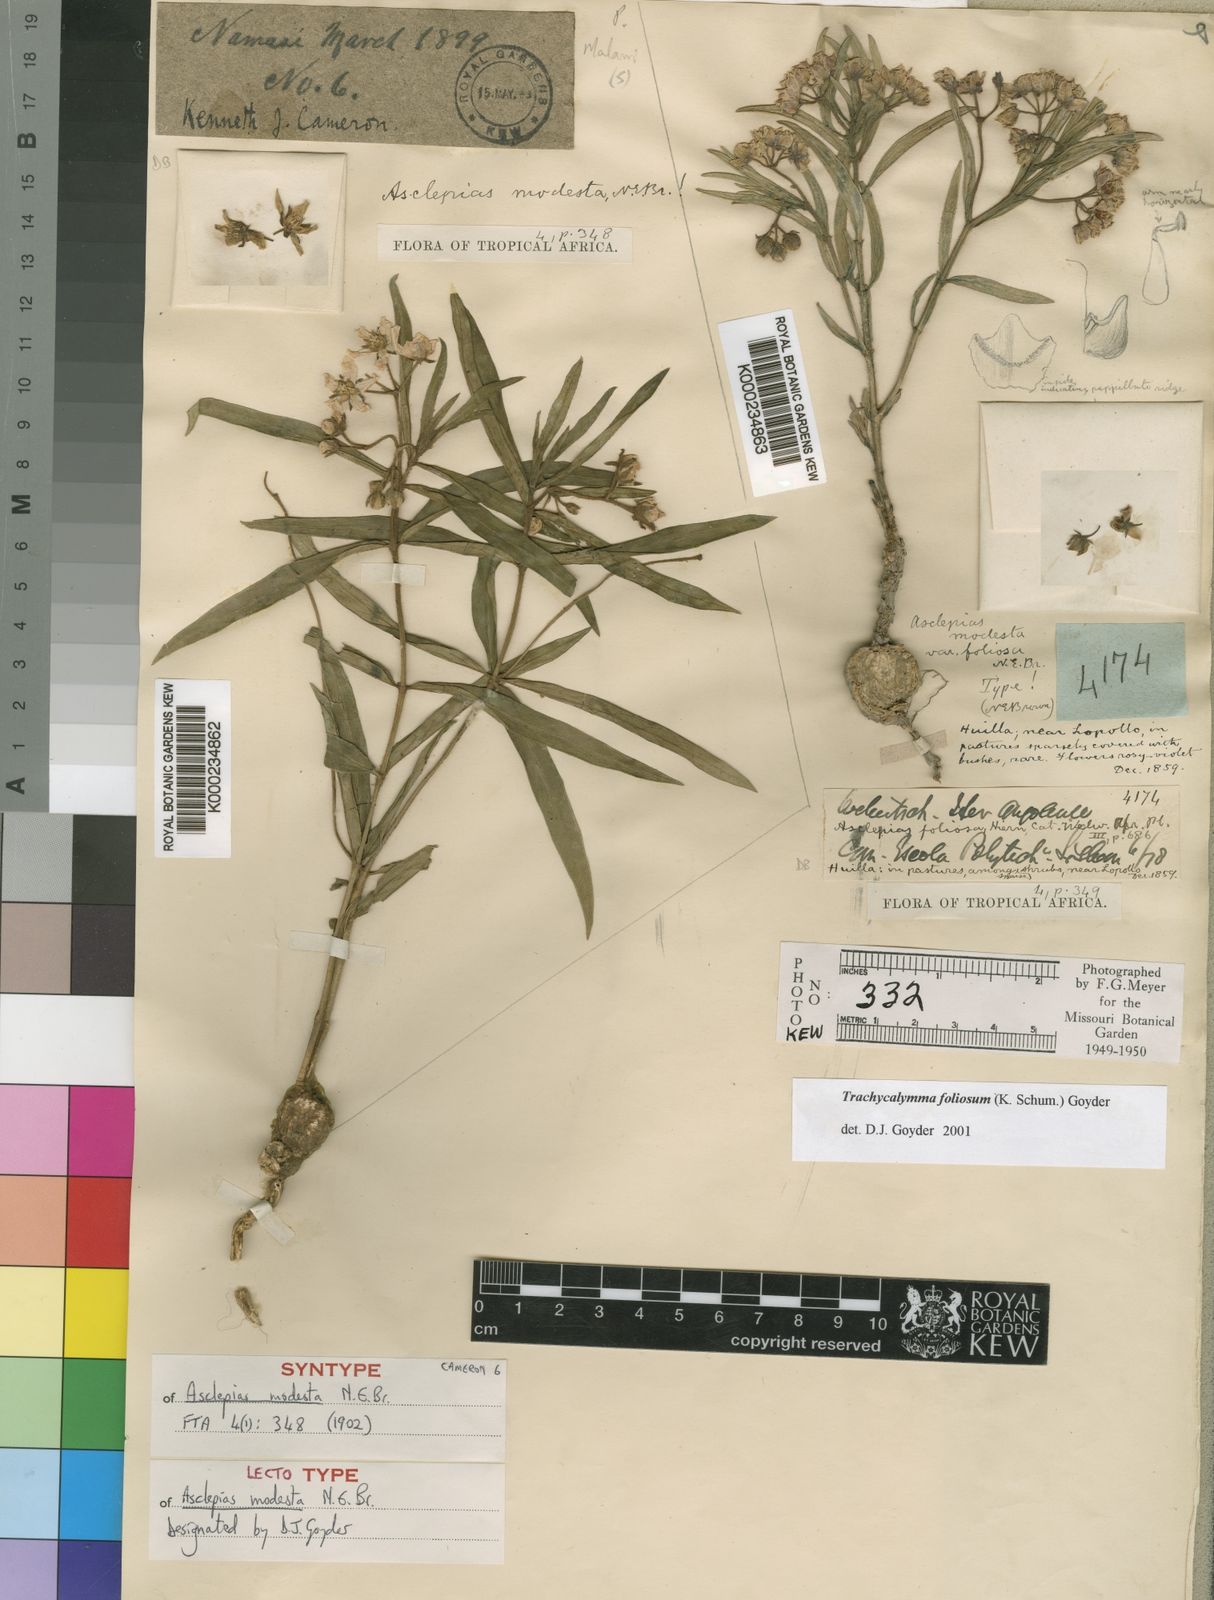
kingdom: Plantae
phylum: Tracheophyta
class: Magnoliopsida
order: Gentianales
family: Apocynaceae
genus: Asclepias
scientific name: Asclepias foliosa
